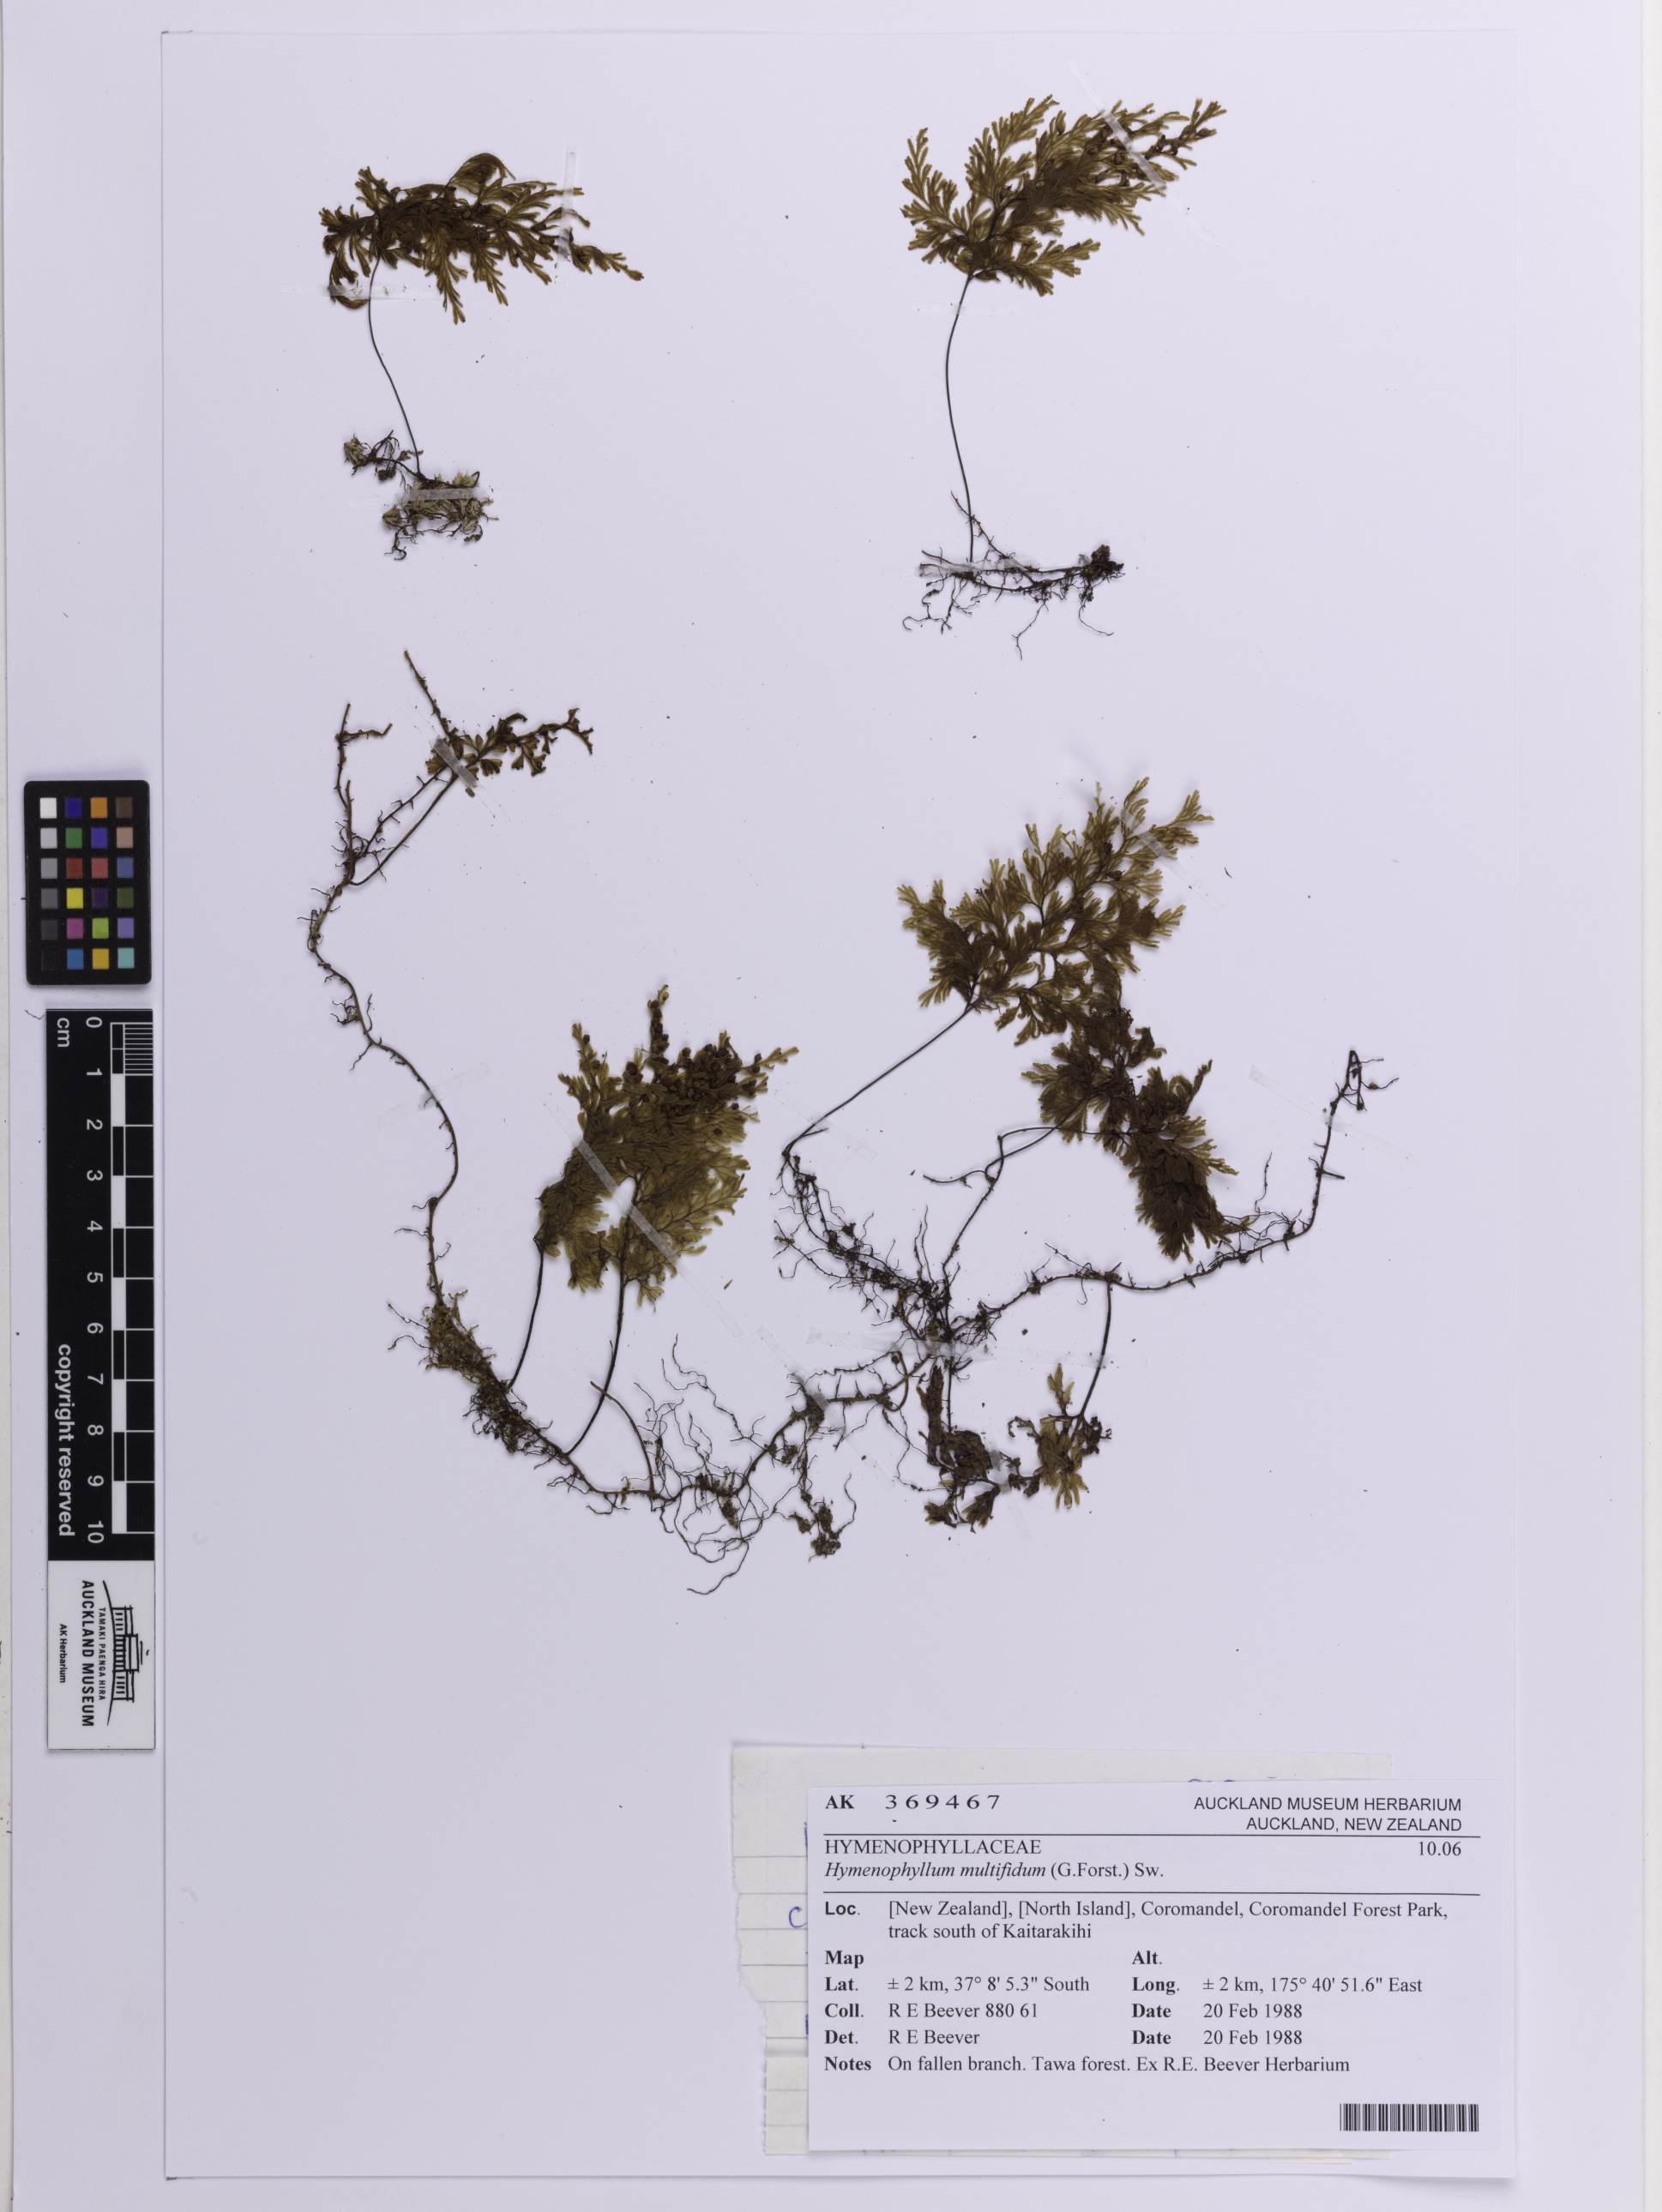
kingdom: Plantae
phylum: Tracheophyta
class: Polypodiopsida
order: Hymenophyllales
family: Hymenophyllaceae
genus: Hymenophyllum
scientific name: Hymenophyllum multifidum
